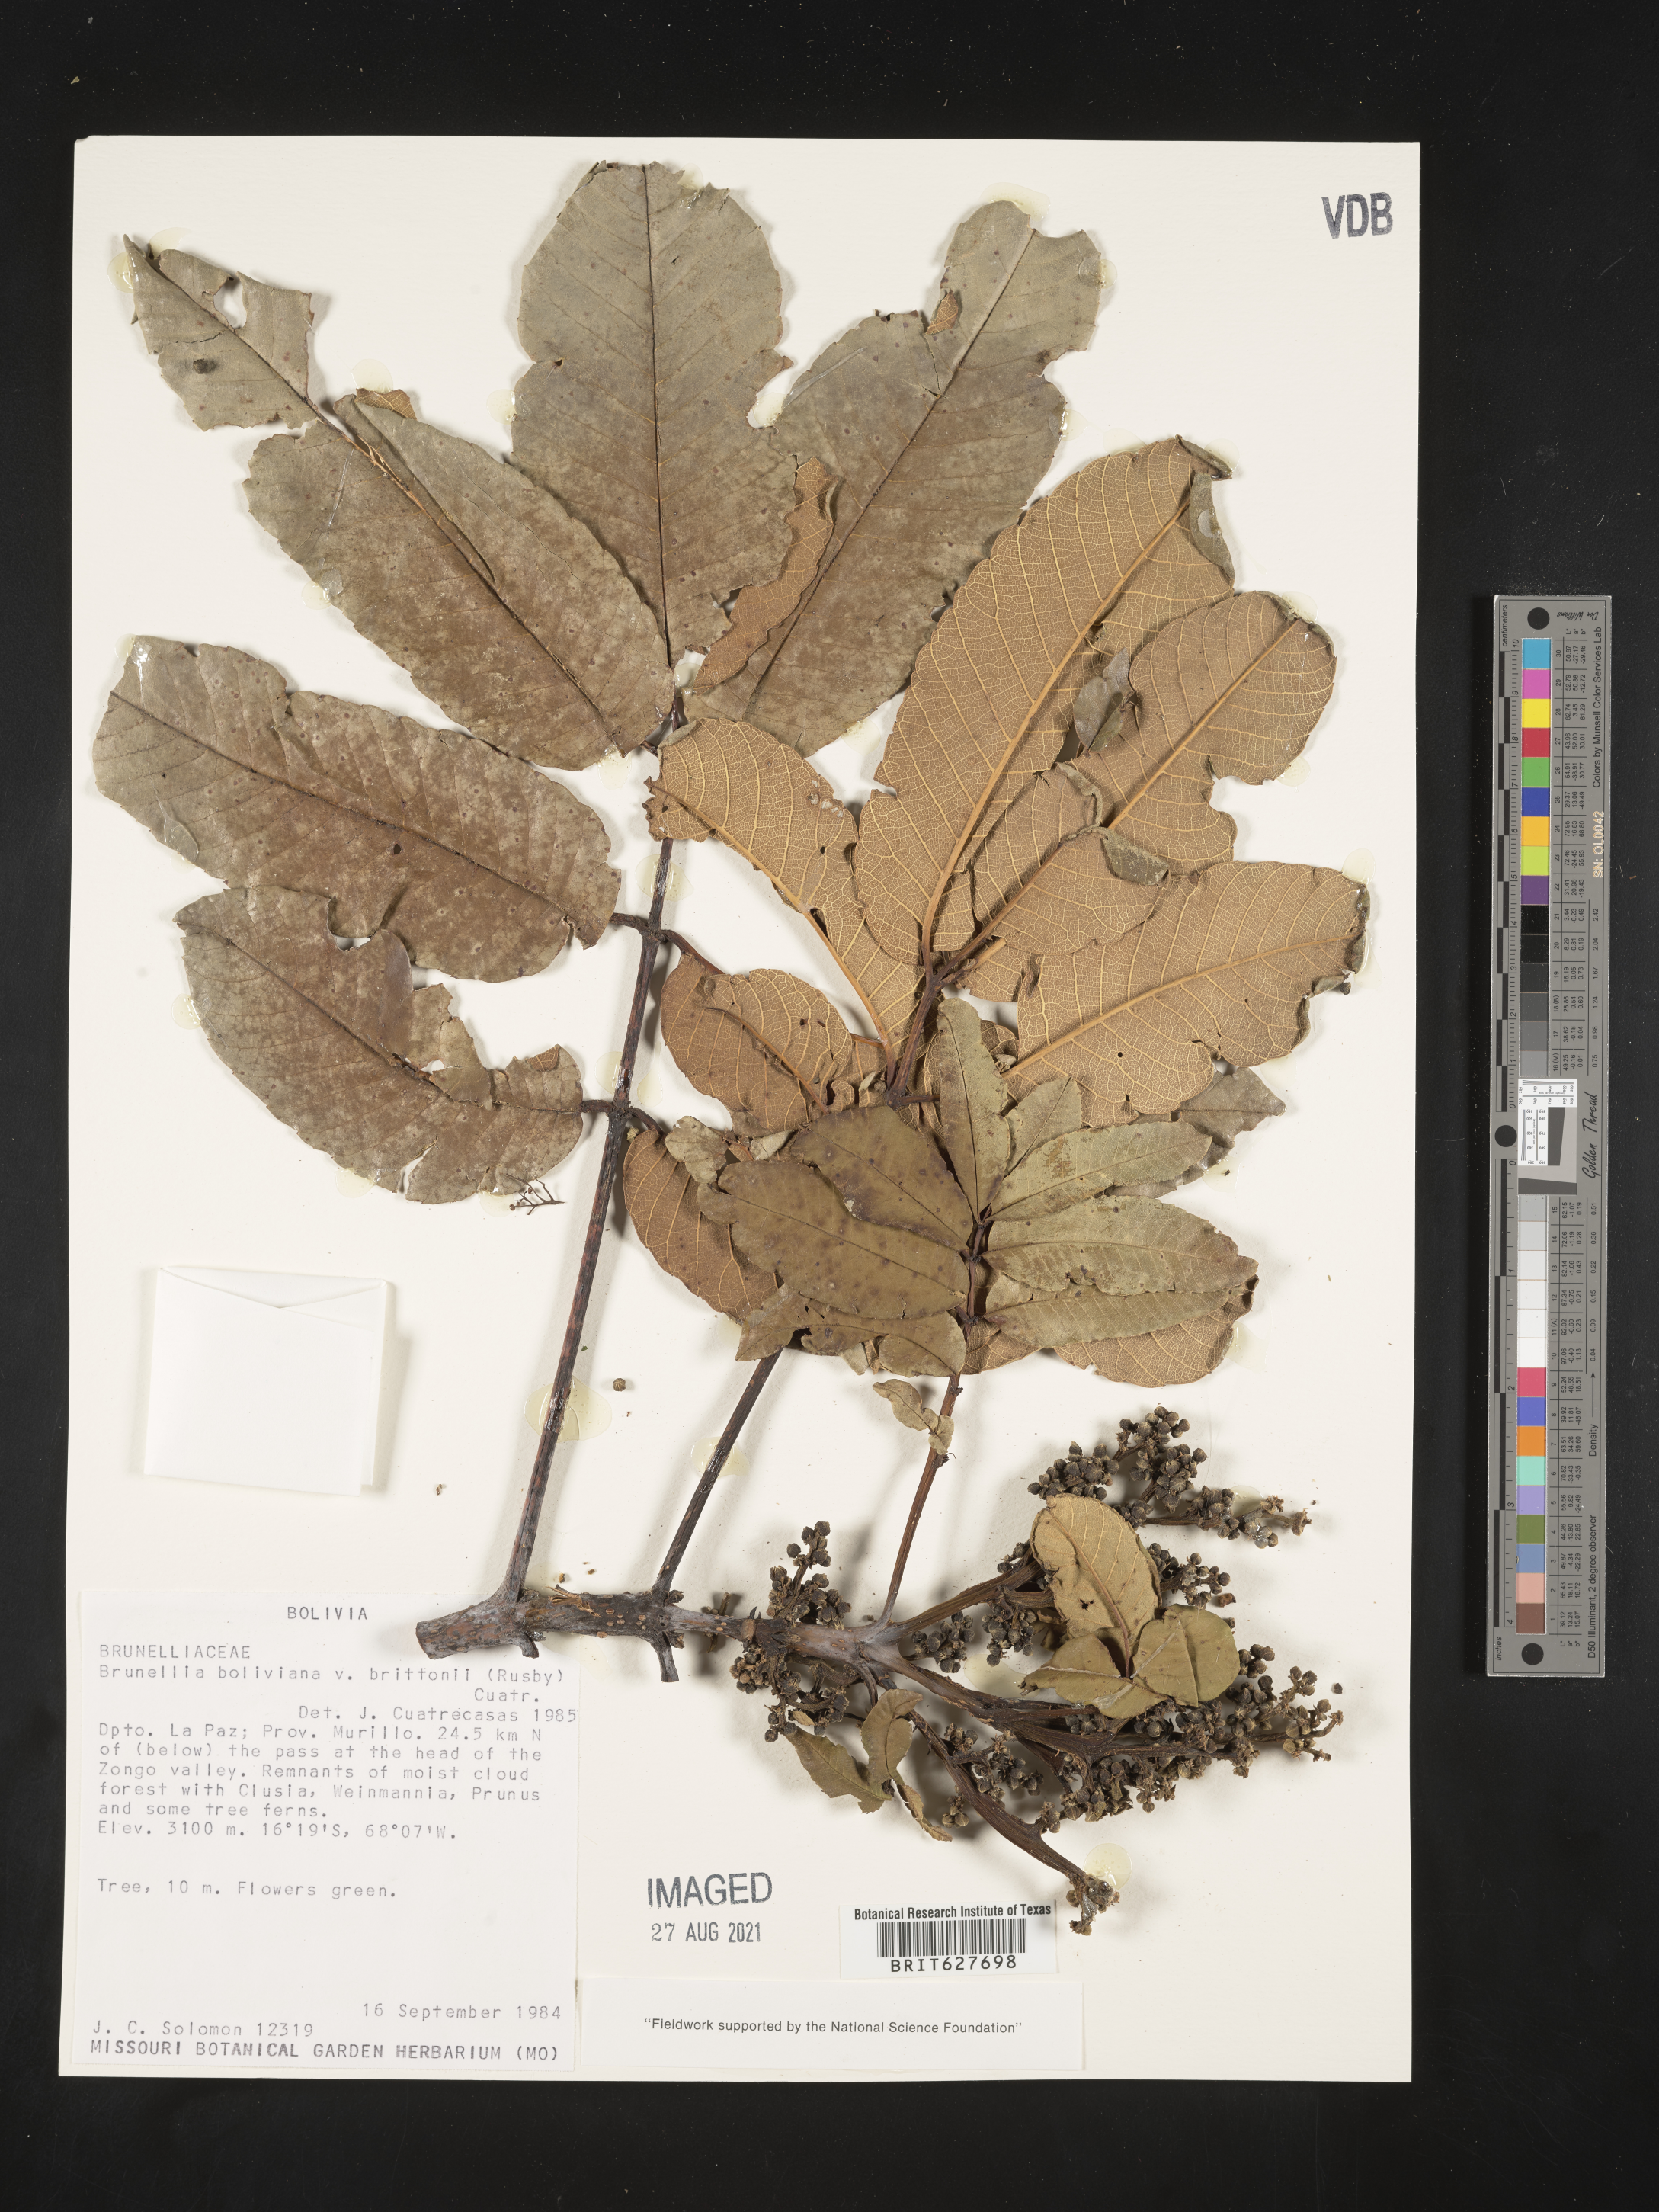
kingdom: Plantae
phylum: Tracheophyta
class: Magnoliopsida
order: Oxalidales
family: Brunelliaceae
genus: Brunellia
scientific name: Brunellia boliviana
